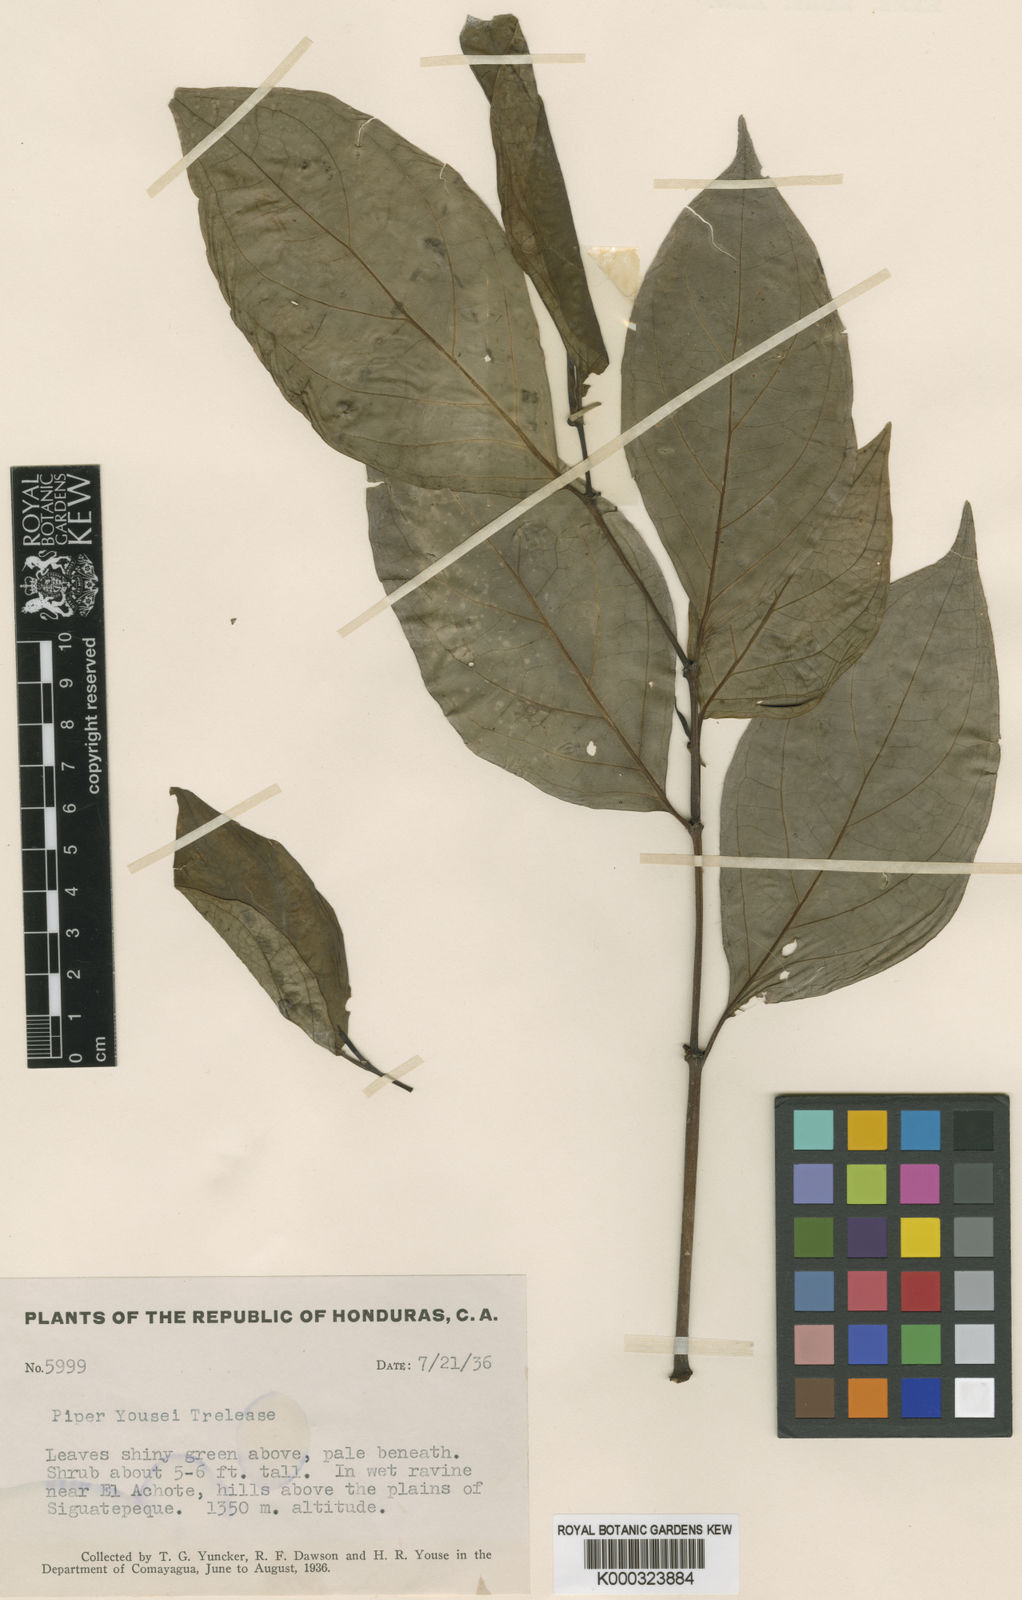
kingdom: Plantae
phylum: Tracheophyta
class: Magnoliopsida
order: Piperales
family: Piperaceae
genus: Piper
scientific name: Piper decurrens
